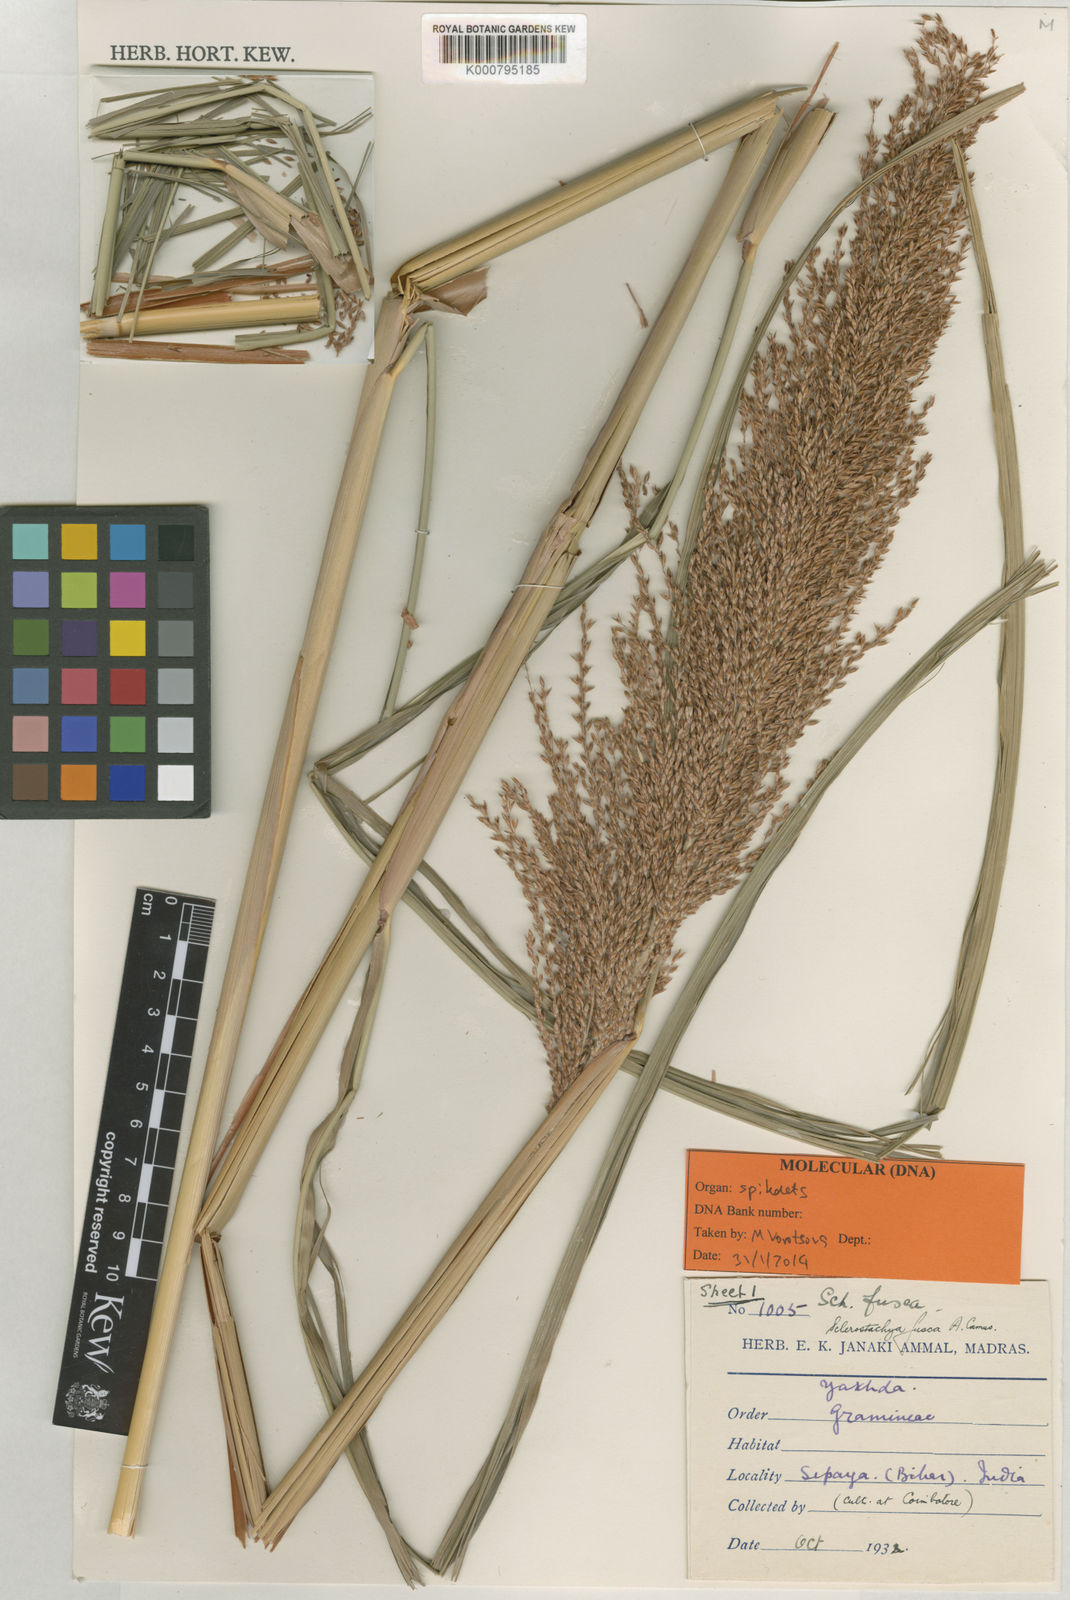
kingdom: Plantae
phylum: Tracheophyta
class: Liliopsida
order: Poales
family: Poaceae
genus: Miscanthus
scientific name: Miscanthus fuscus
